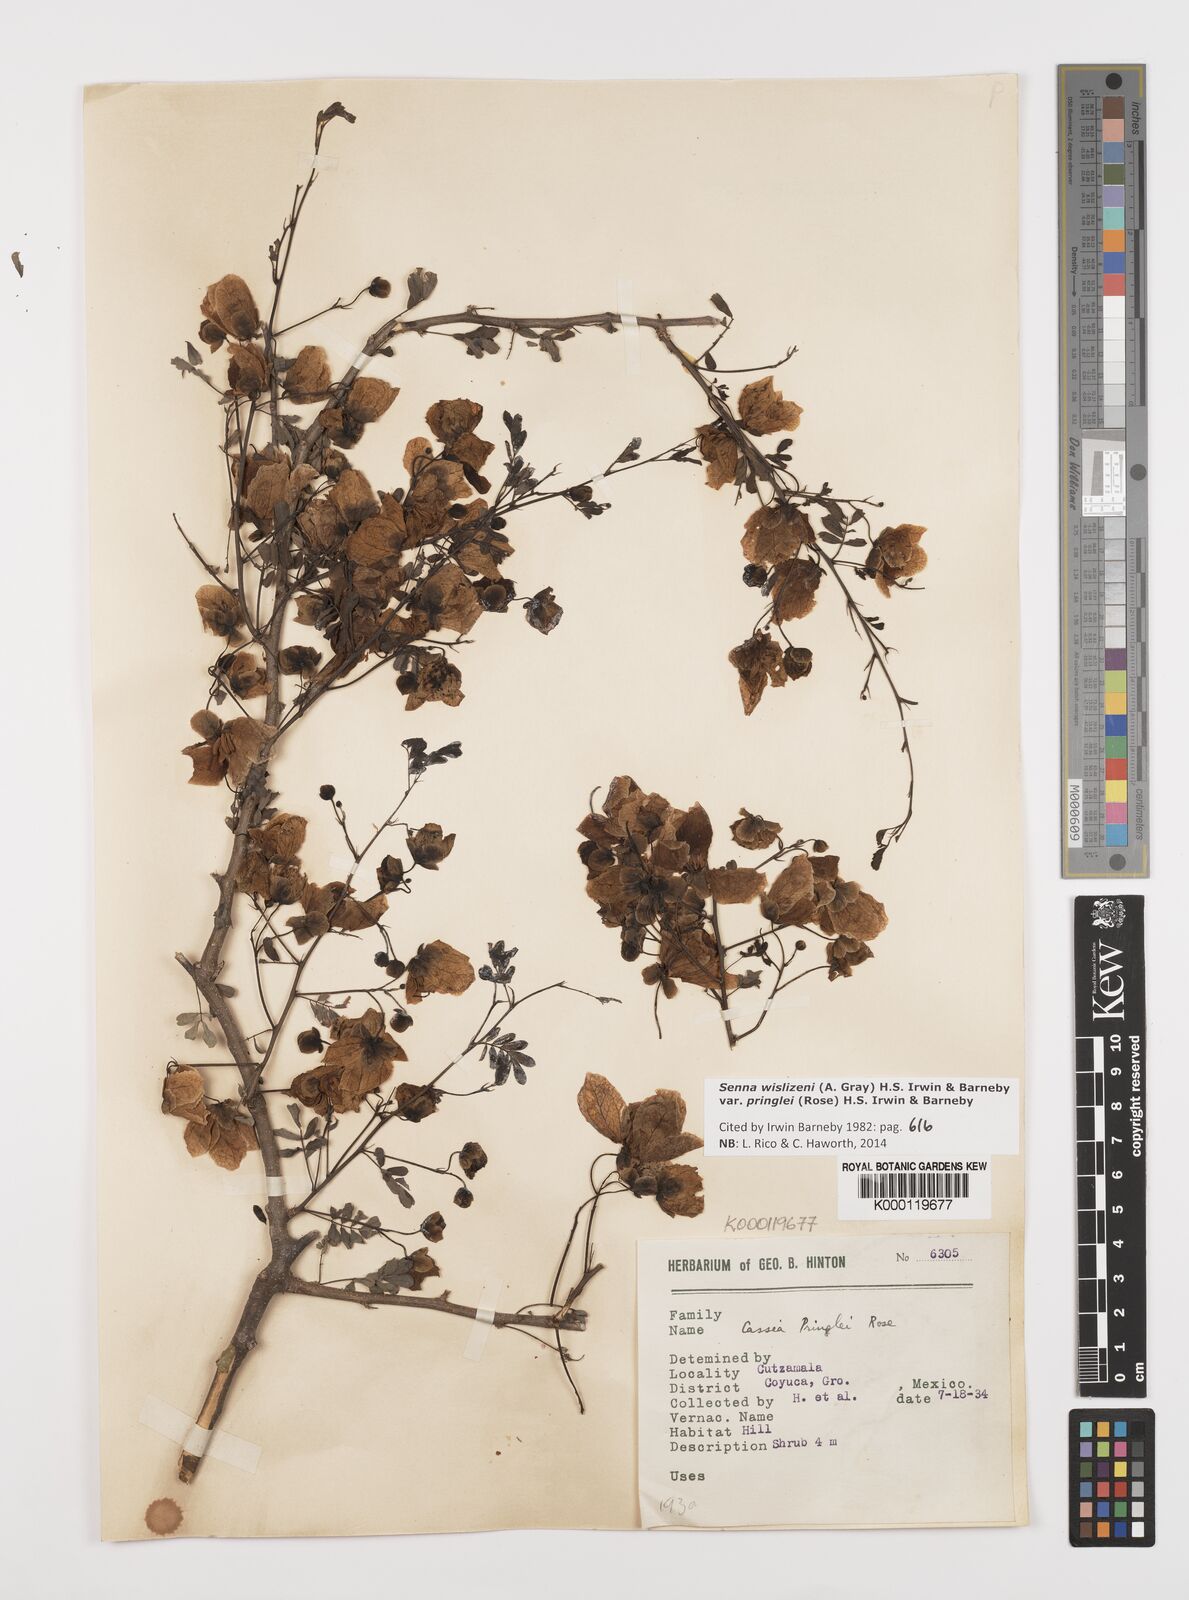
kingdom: Plantae
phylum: Tracheophyta
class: Magnoliopsida
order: Fabales
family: Fabaceae
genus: Senna
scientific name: Senna wislizeni
